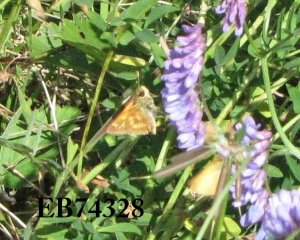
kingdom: Animalia
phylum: Arthropoda
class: Insecta
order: Lepidoptera
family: Hesperiidae
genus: Polites
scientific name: Polites
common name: Long Dash Skipper
